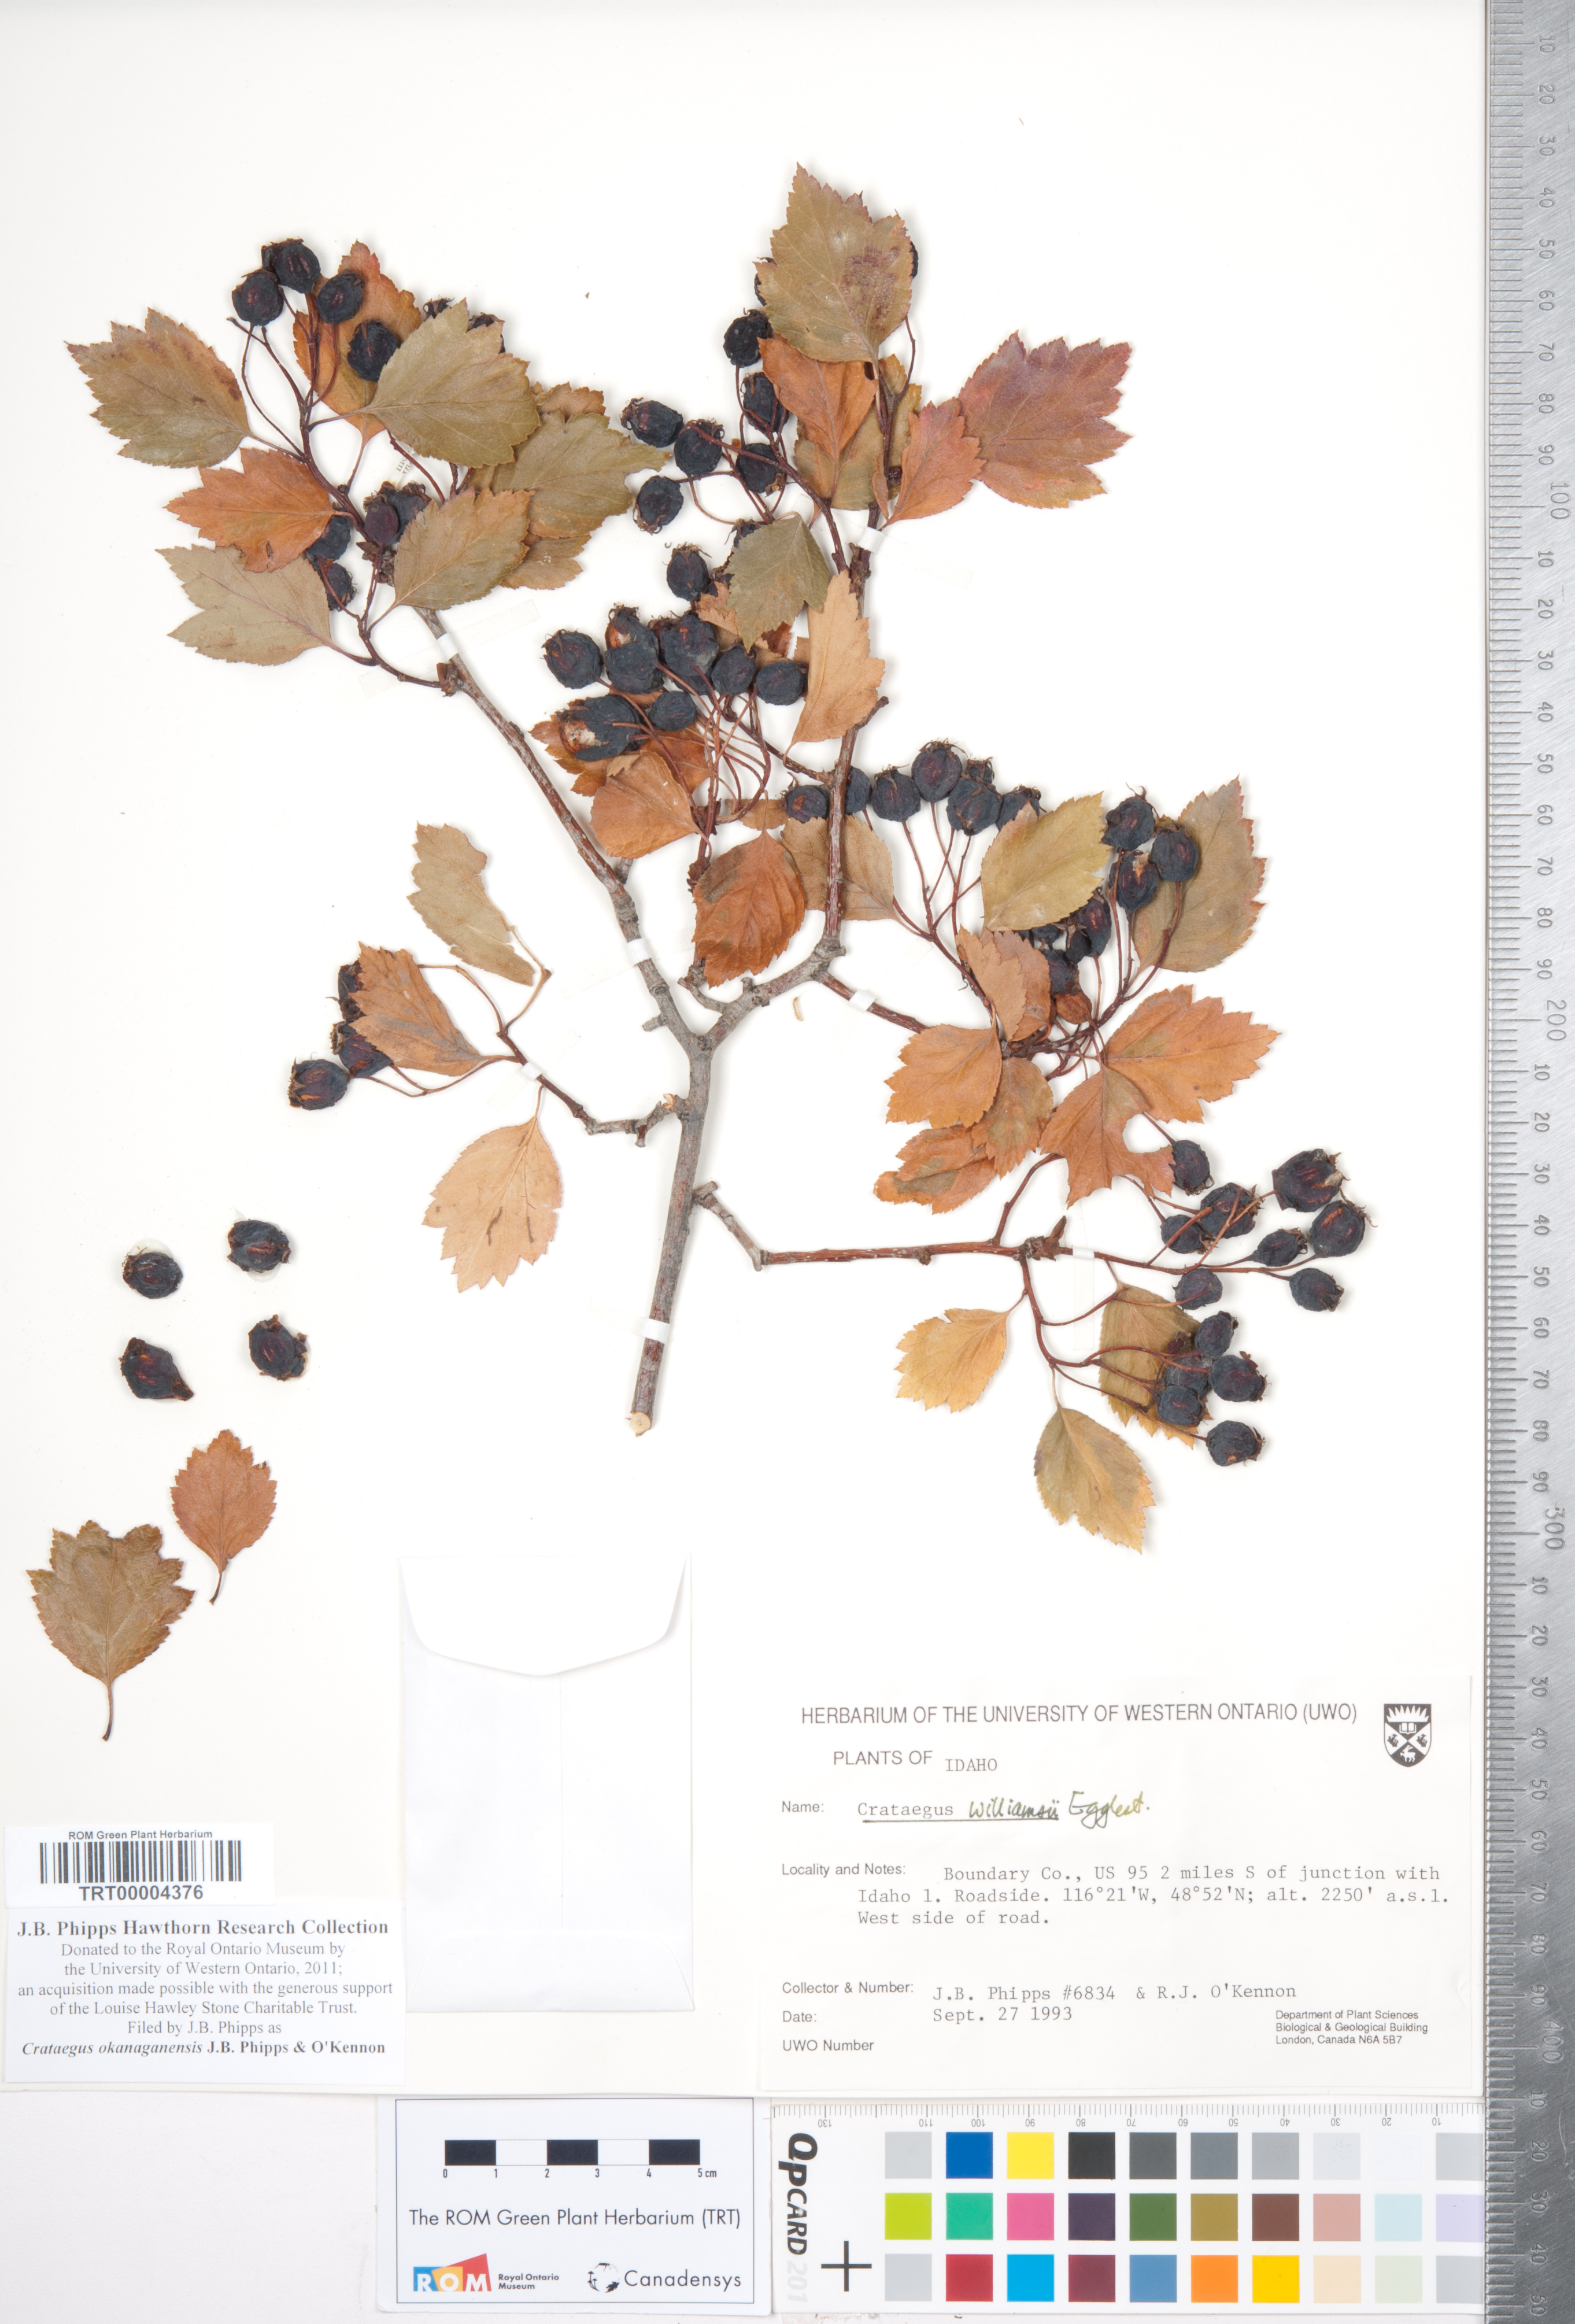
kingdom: Plantae
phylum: Tracheophyta
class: Magnoliopsida
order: Rosales
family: Rosaceae
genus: Crataegus
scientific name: Crataegus okanaganensis
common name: Okanagan valley hawthorn
